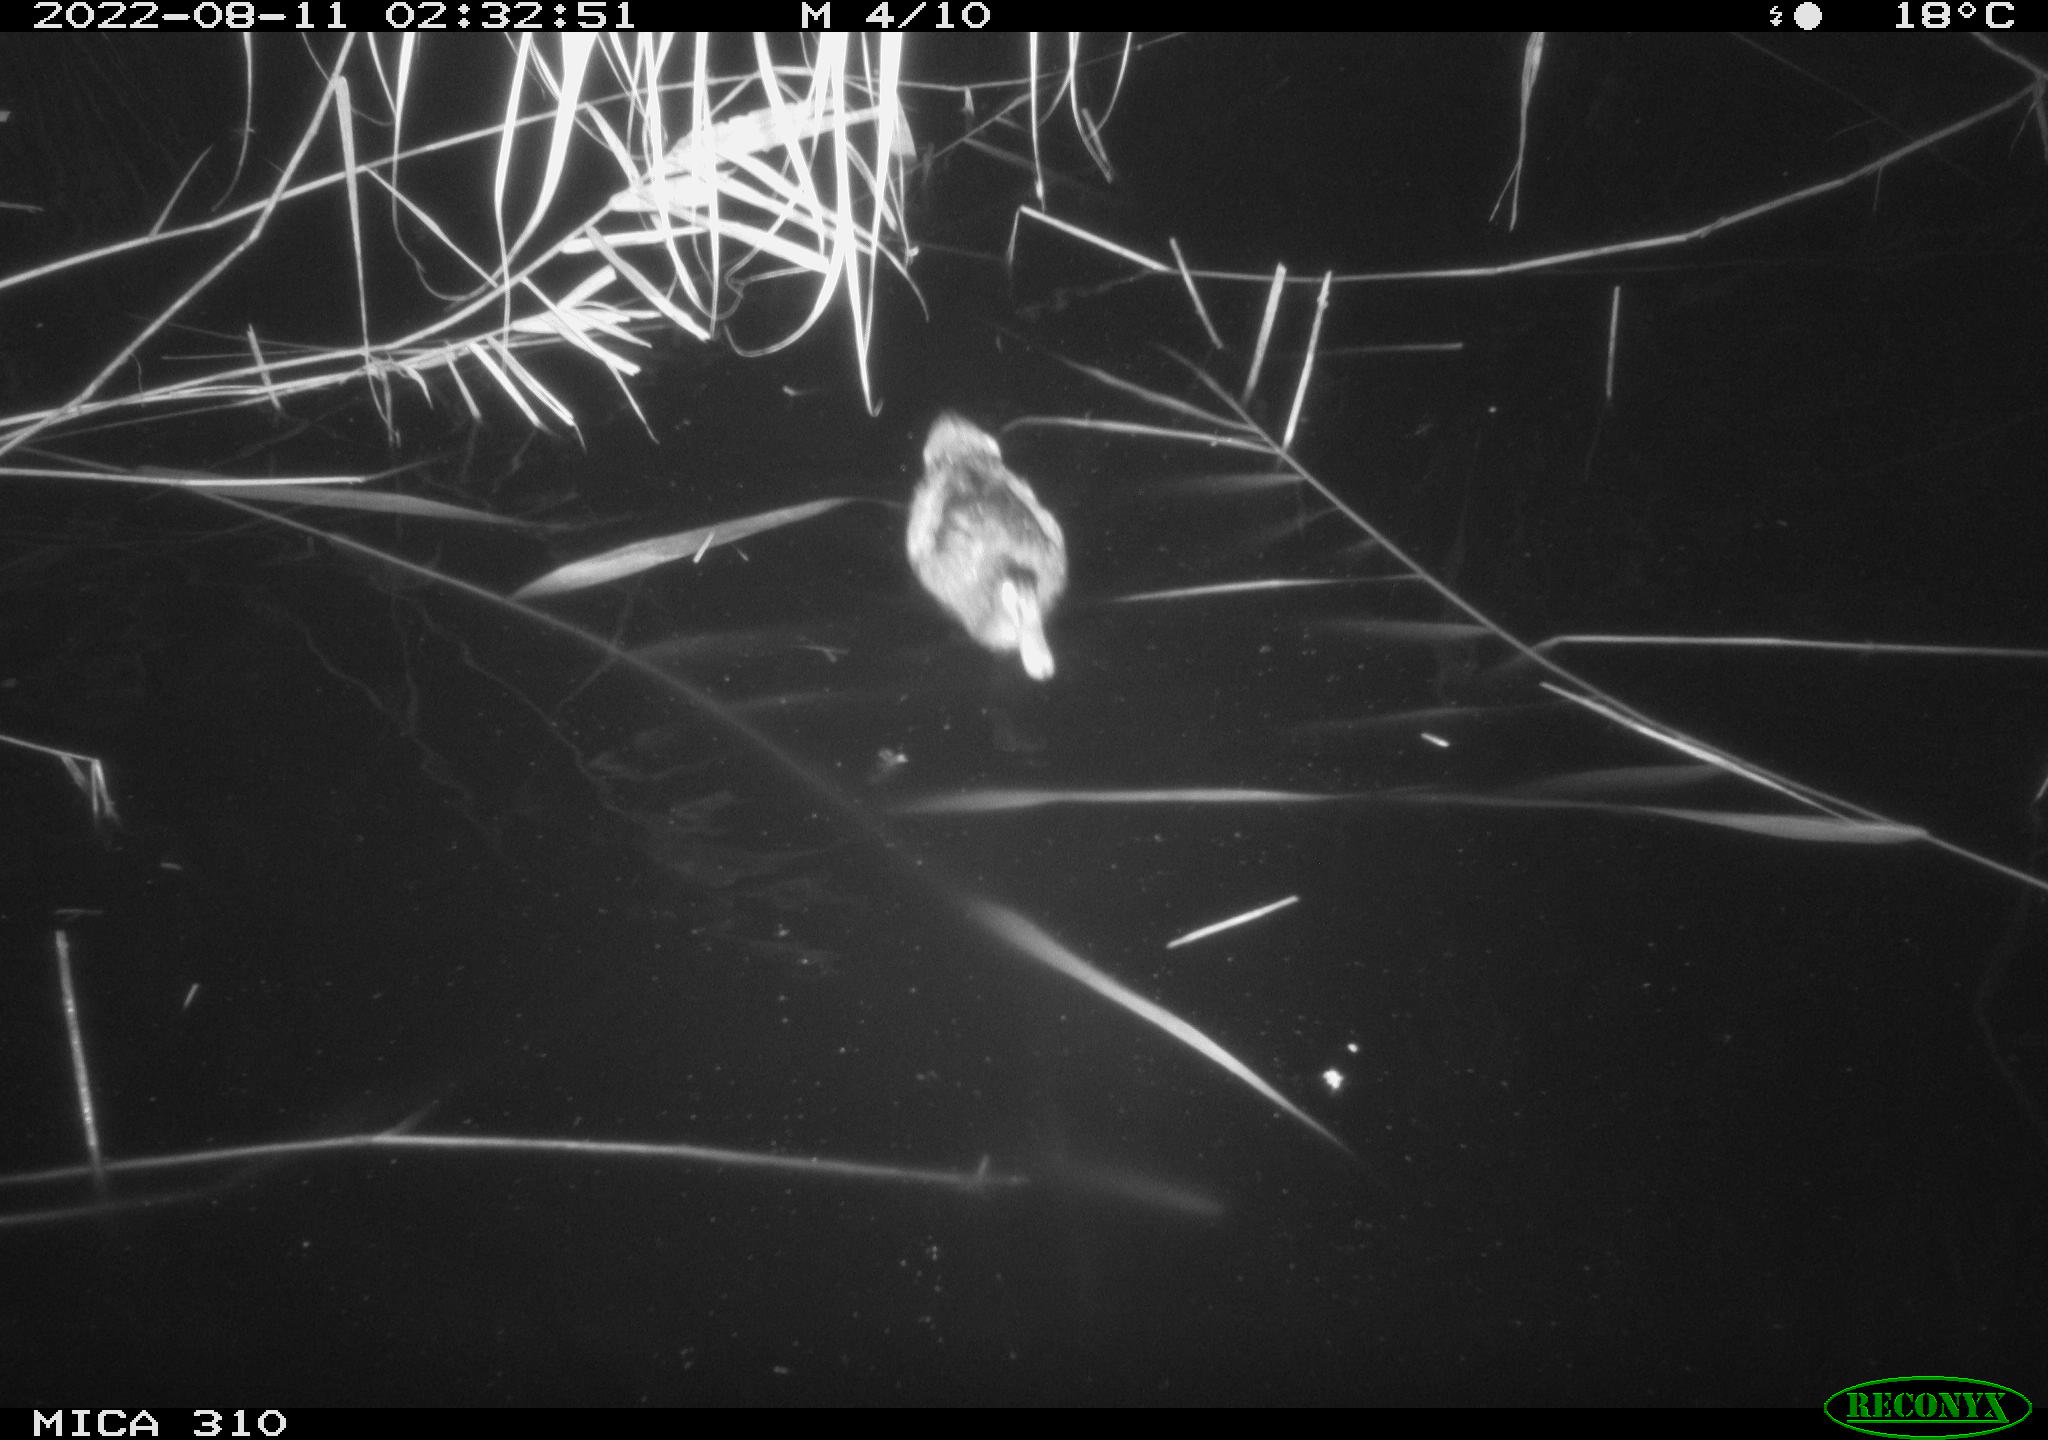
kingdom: Animalia
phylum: Chordata
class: Aves
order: Anseriformes
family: Anatidae
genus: Anas
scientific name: Anas platyrhynchos
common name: Mallard
